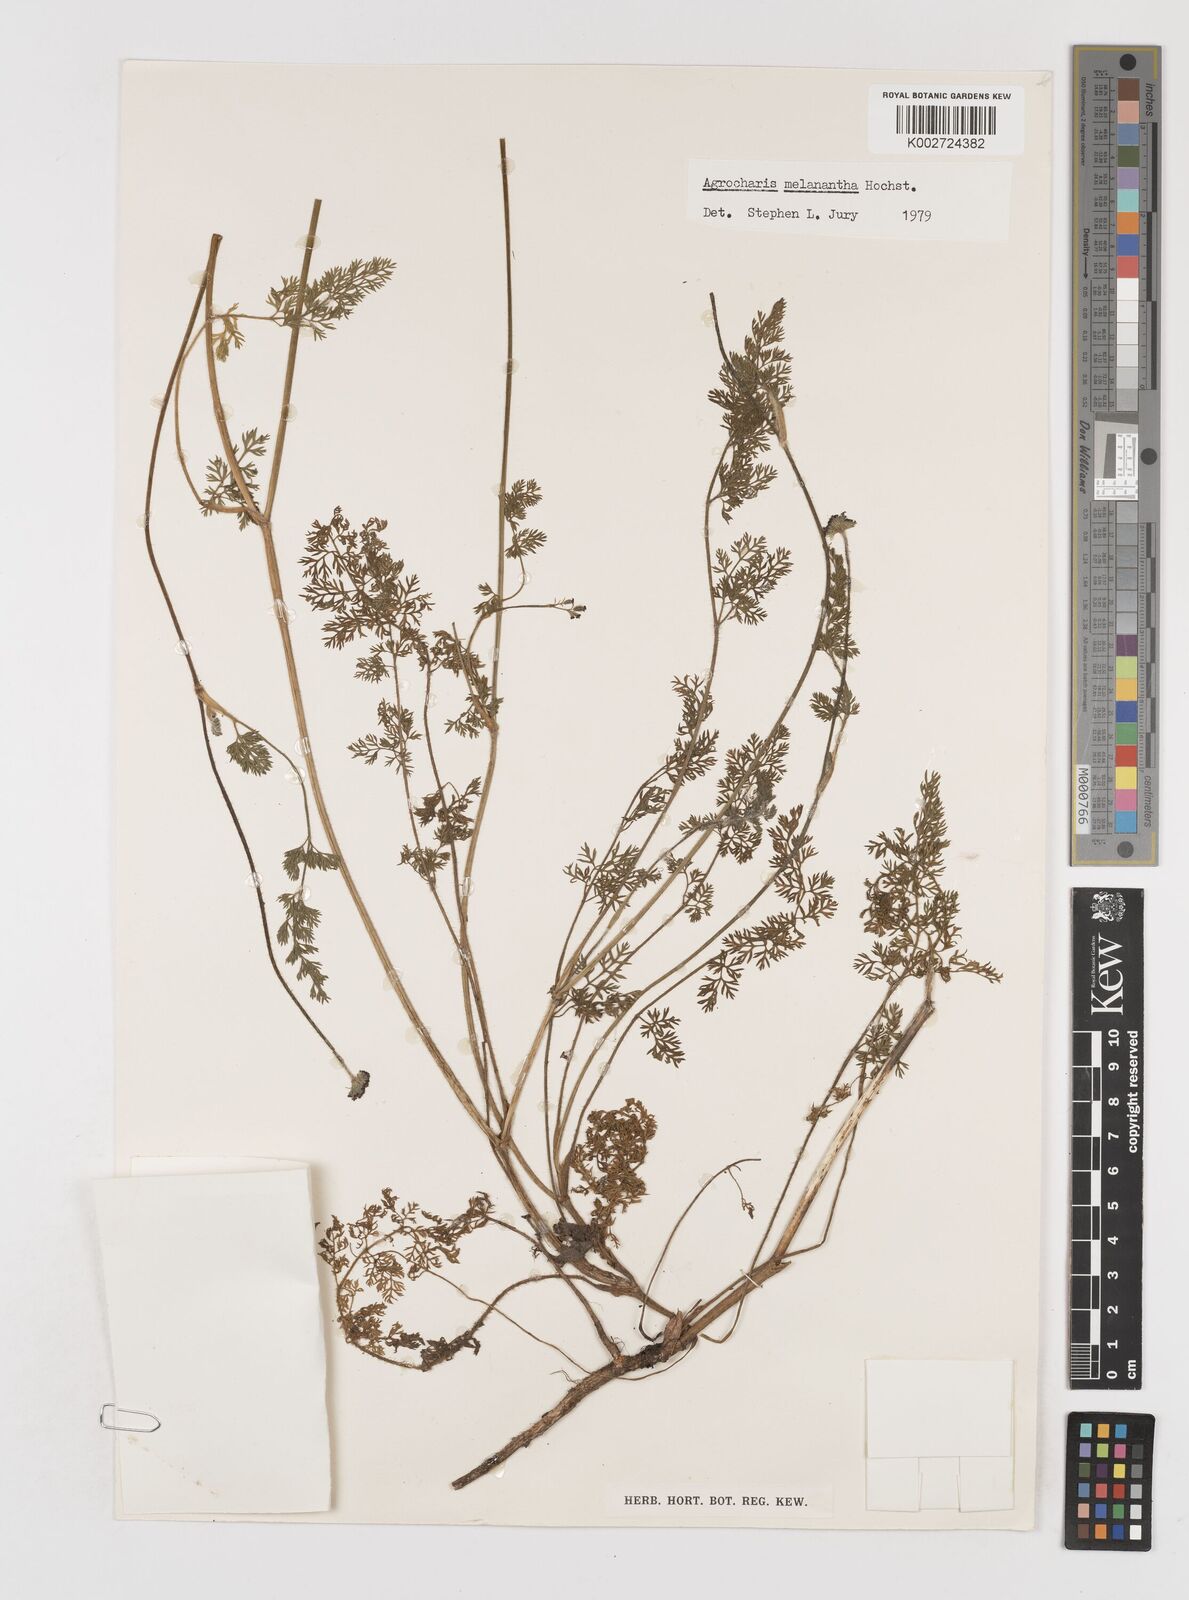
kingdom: Plantae
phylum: Tracheophyta
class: Magnoliopsida
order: Apiales
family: Apiaceae
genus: Daucus
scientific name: Daucus melananthus
